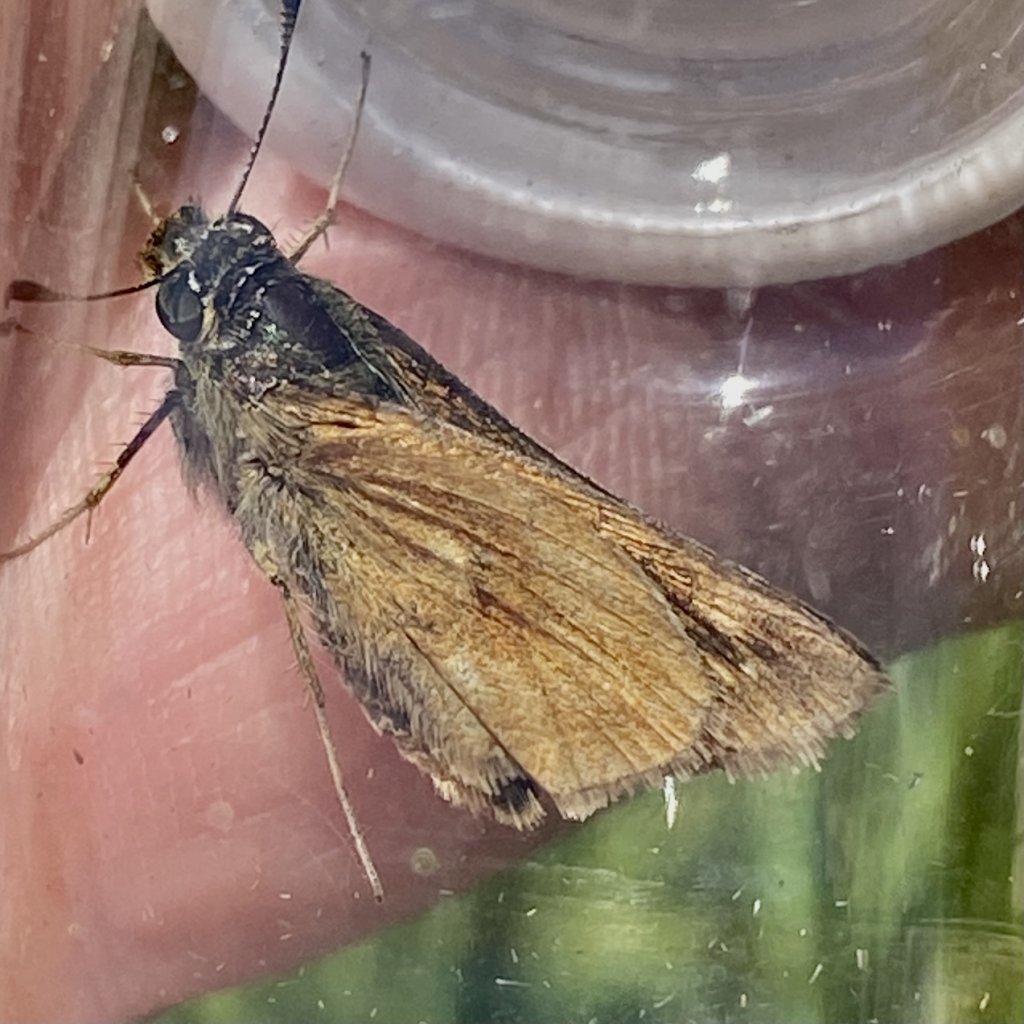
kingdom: Animalia
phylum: Arthropoda
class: Insecta
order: Lepidoptera
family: Hesperiidae
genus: Polites
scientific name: Polites
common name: Long Dash Skipper
